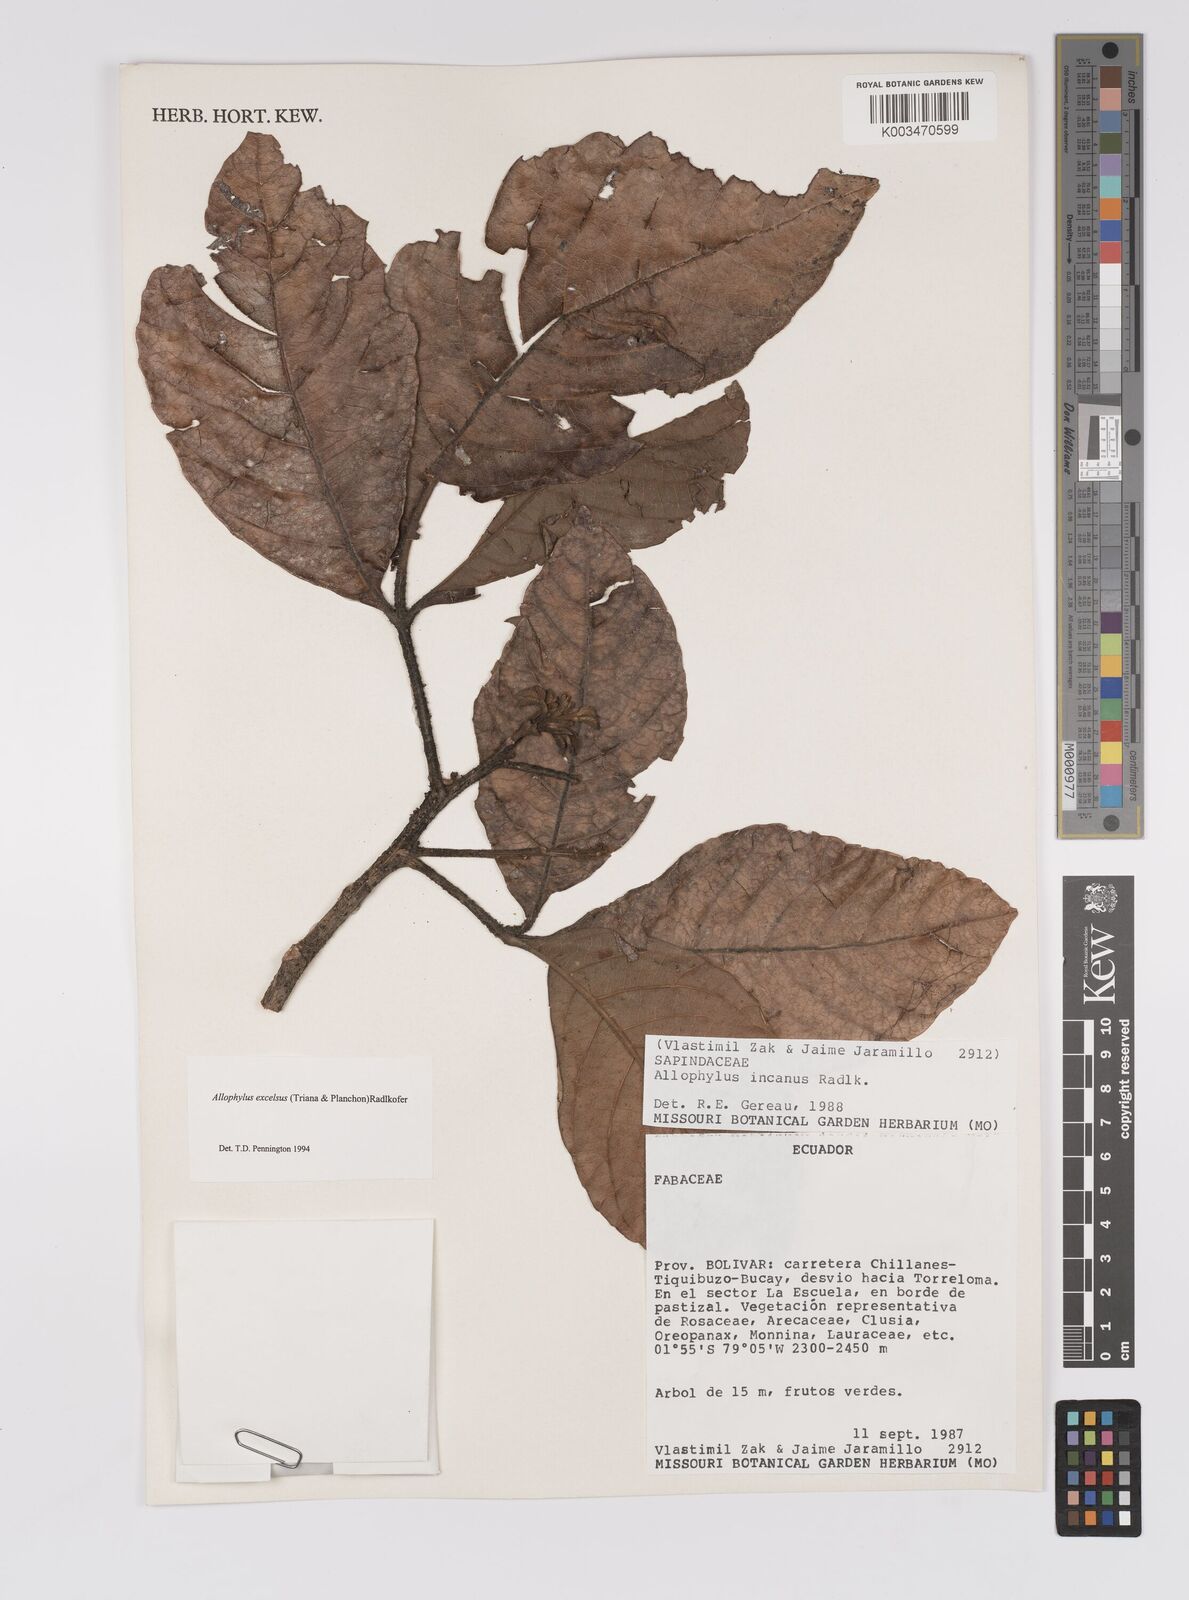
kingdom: Plantae
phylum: Tracheophyta
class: Magnoliopsida
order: Sapindales
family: Sapindaceae
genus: Allophylus
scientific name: Allophylus excelsus
